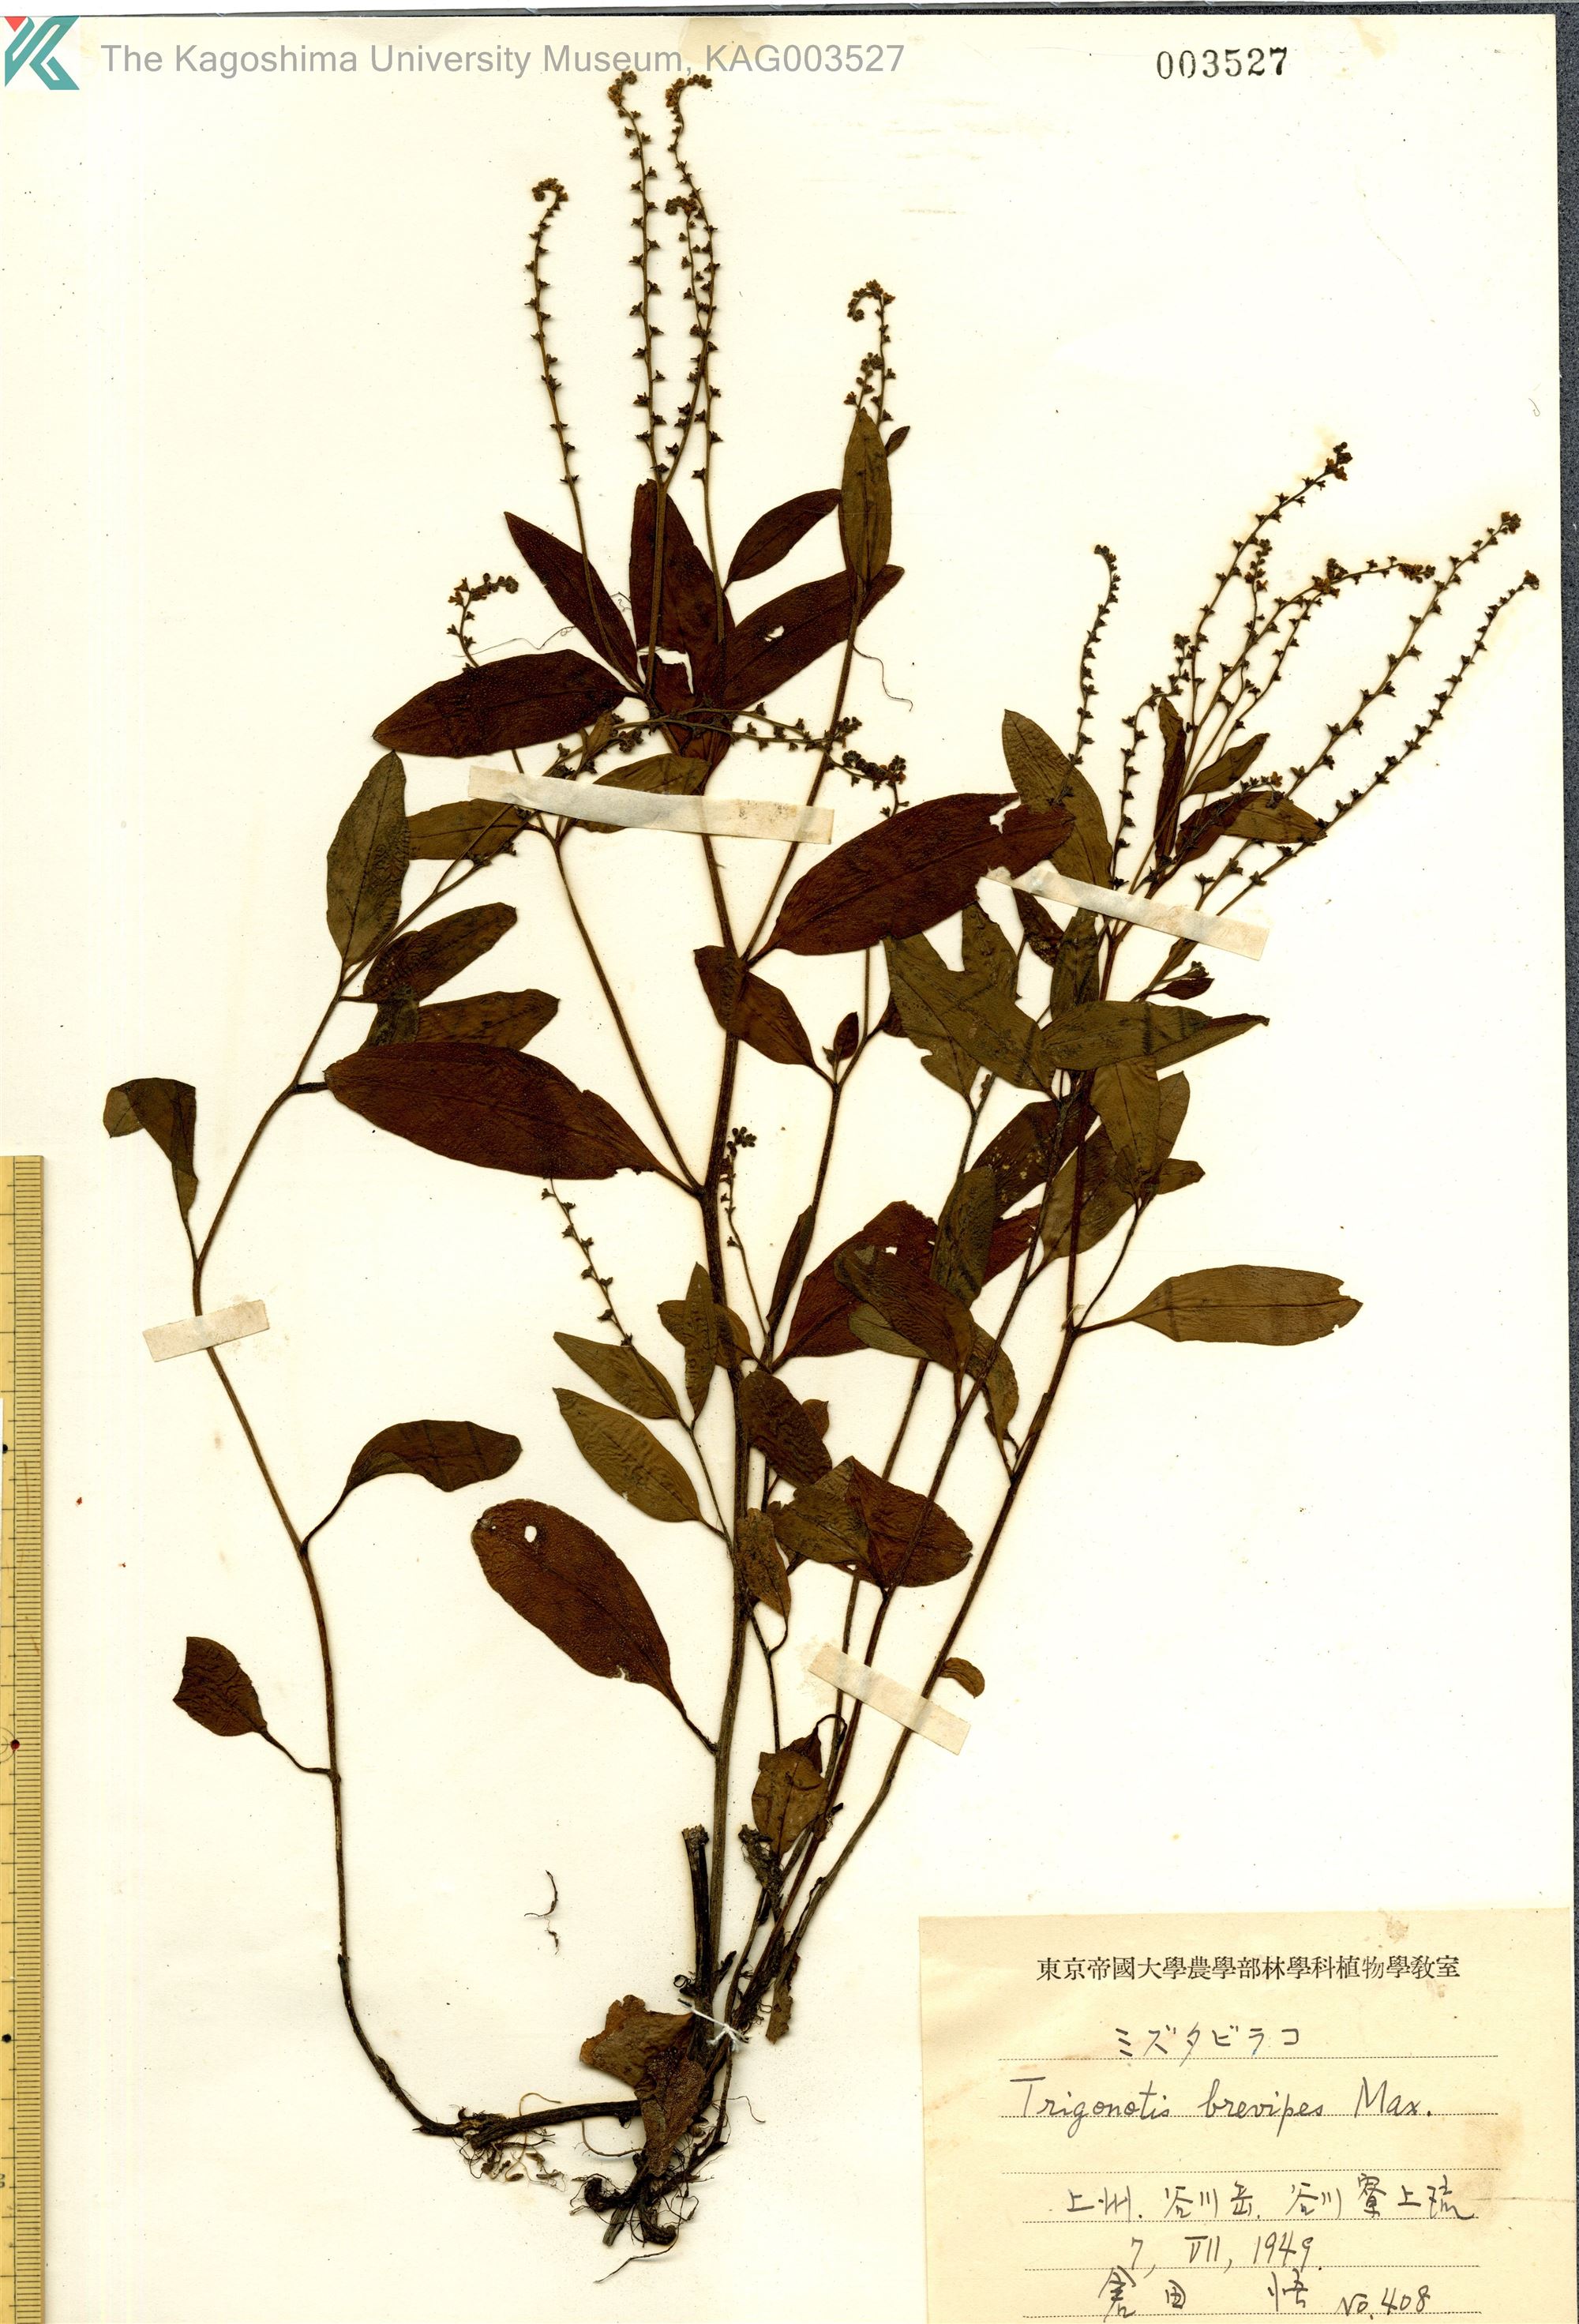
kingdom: Plantae
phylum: Tracheophyta
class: Magnoliopsida
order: Boraginales
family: Boraginaceae
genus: Trigonotis
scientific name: Trigonotis brevipes
